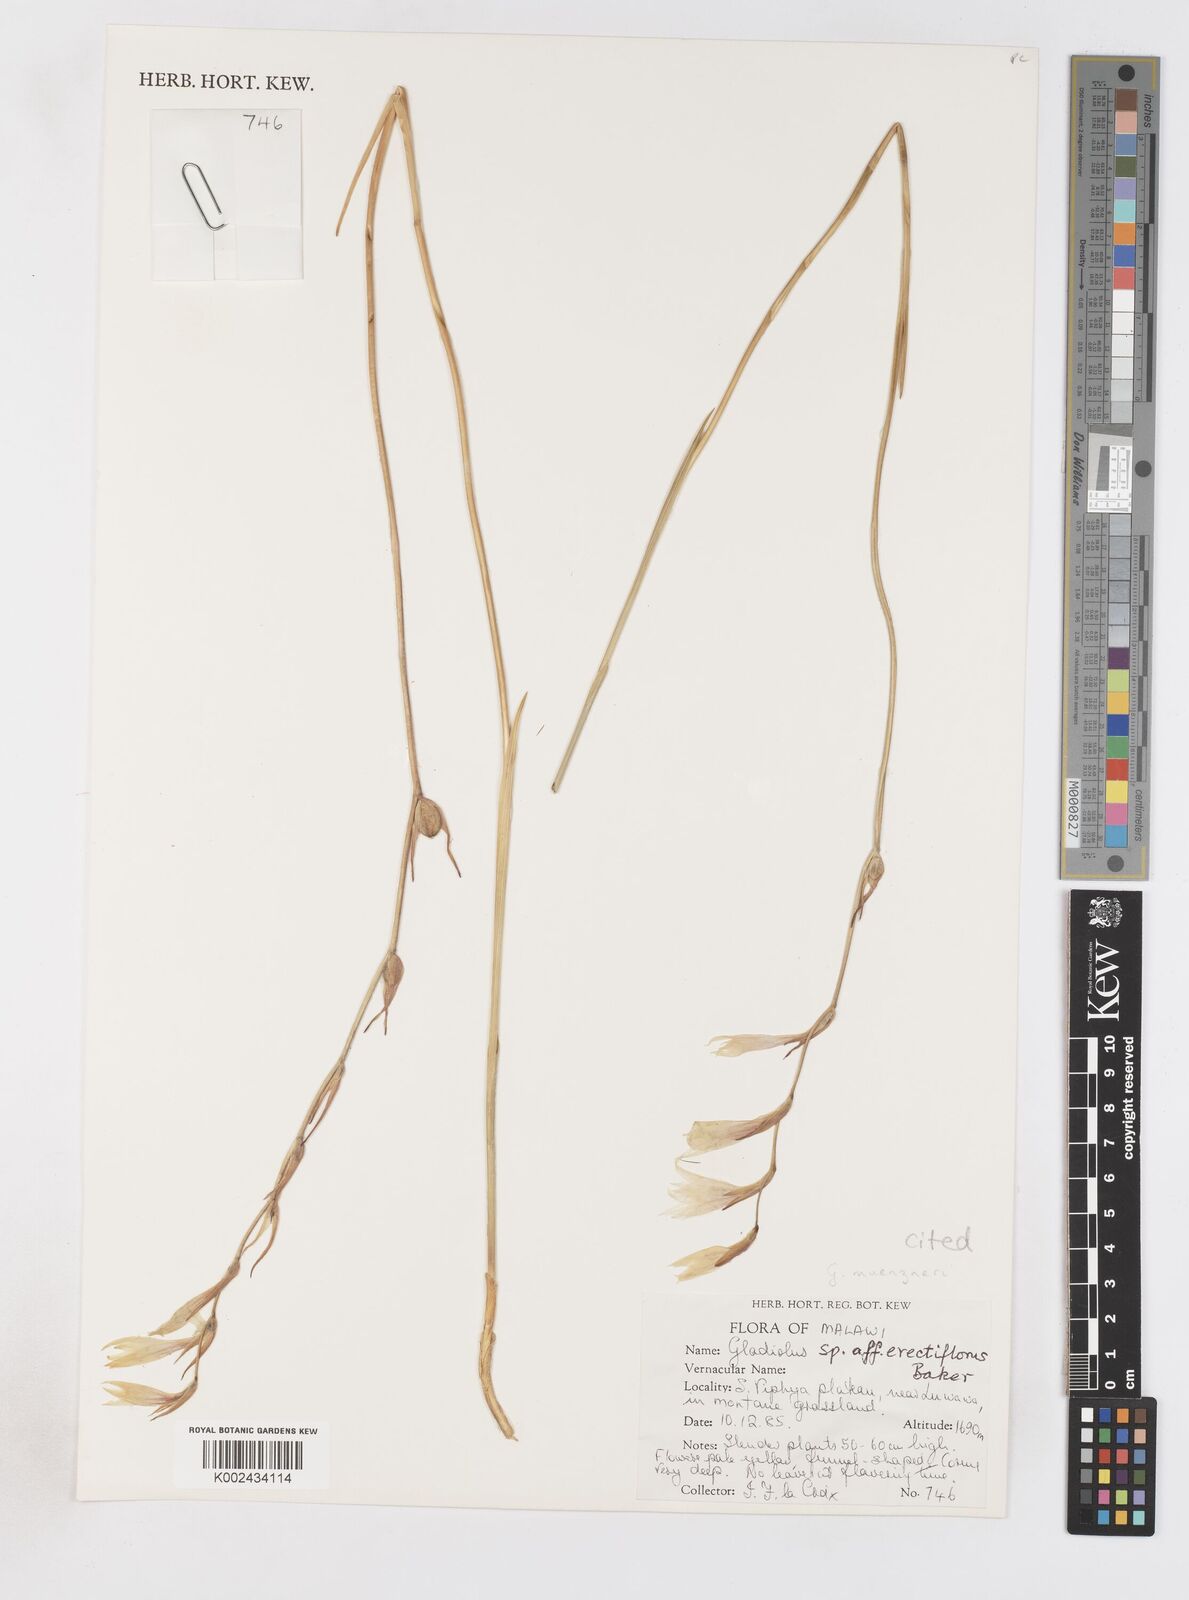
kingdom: Plantae
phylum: Tracheophyta
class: Liliopsida
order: Asparagales
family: Iridaceae
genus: Gladiolus
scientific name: Gladiolus muenzneri
